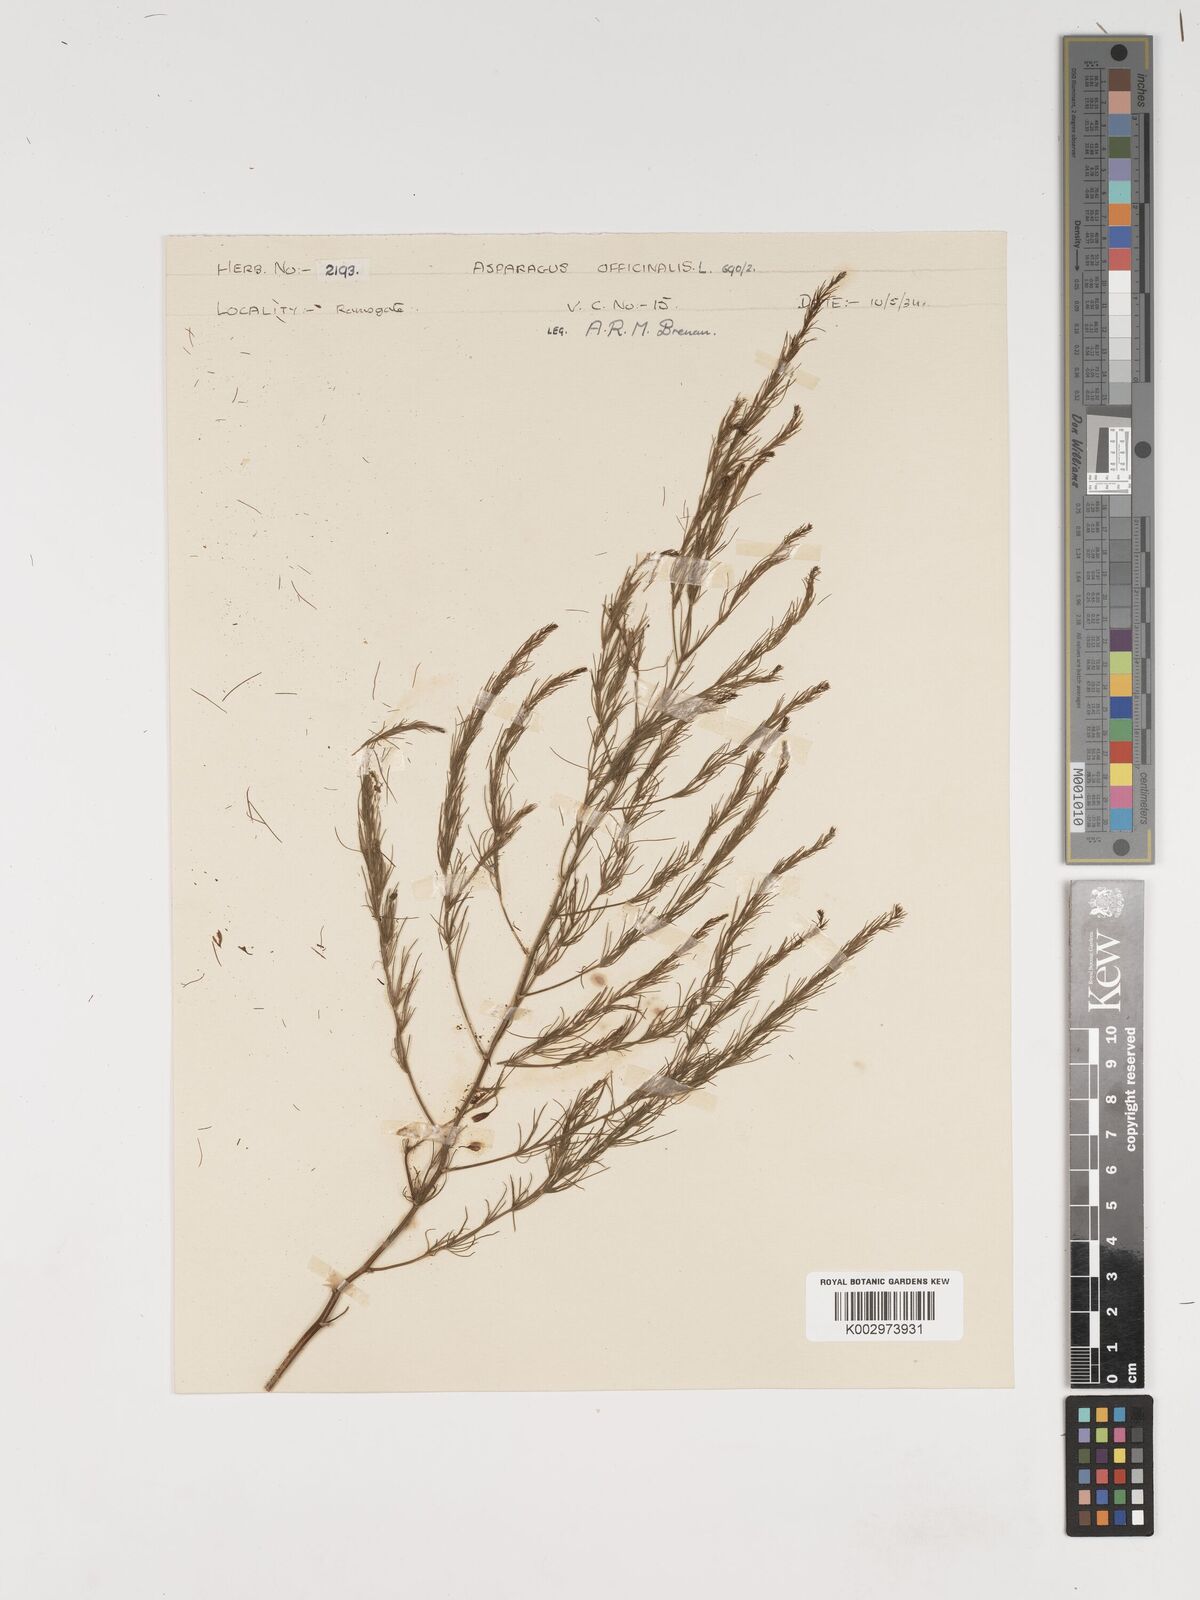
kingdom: Plantae
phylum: Tracheophyta
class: Liliopsida
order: Asparagales
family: Asparagaceae
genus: Asparagus
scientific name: Asparagus officinalis
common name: Garden asparagus
